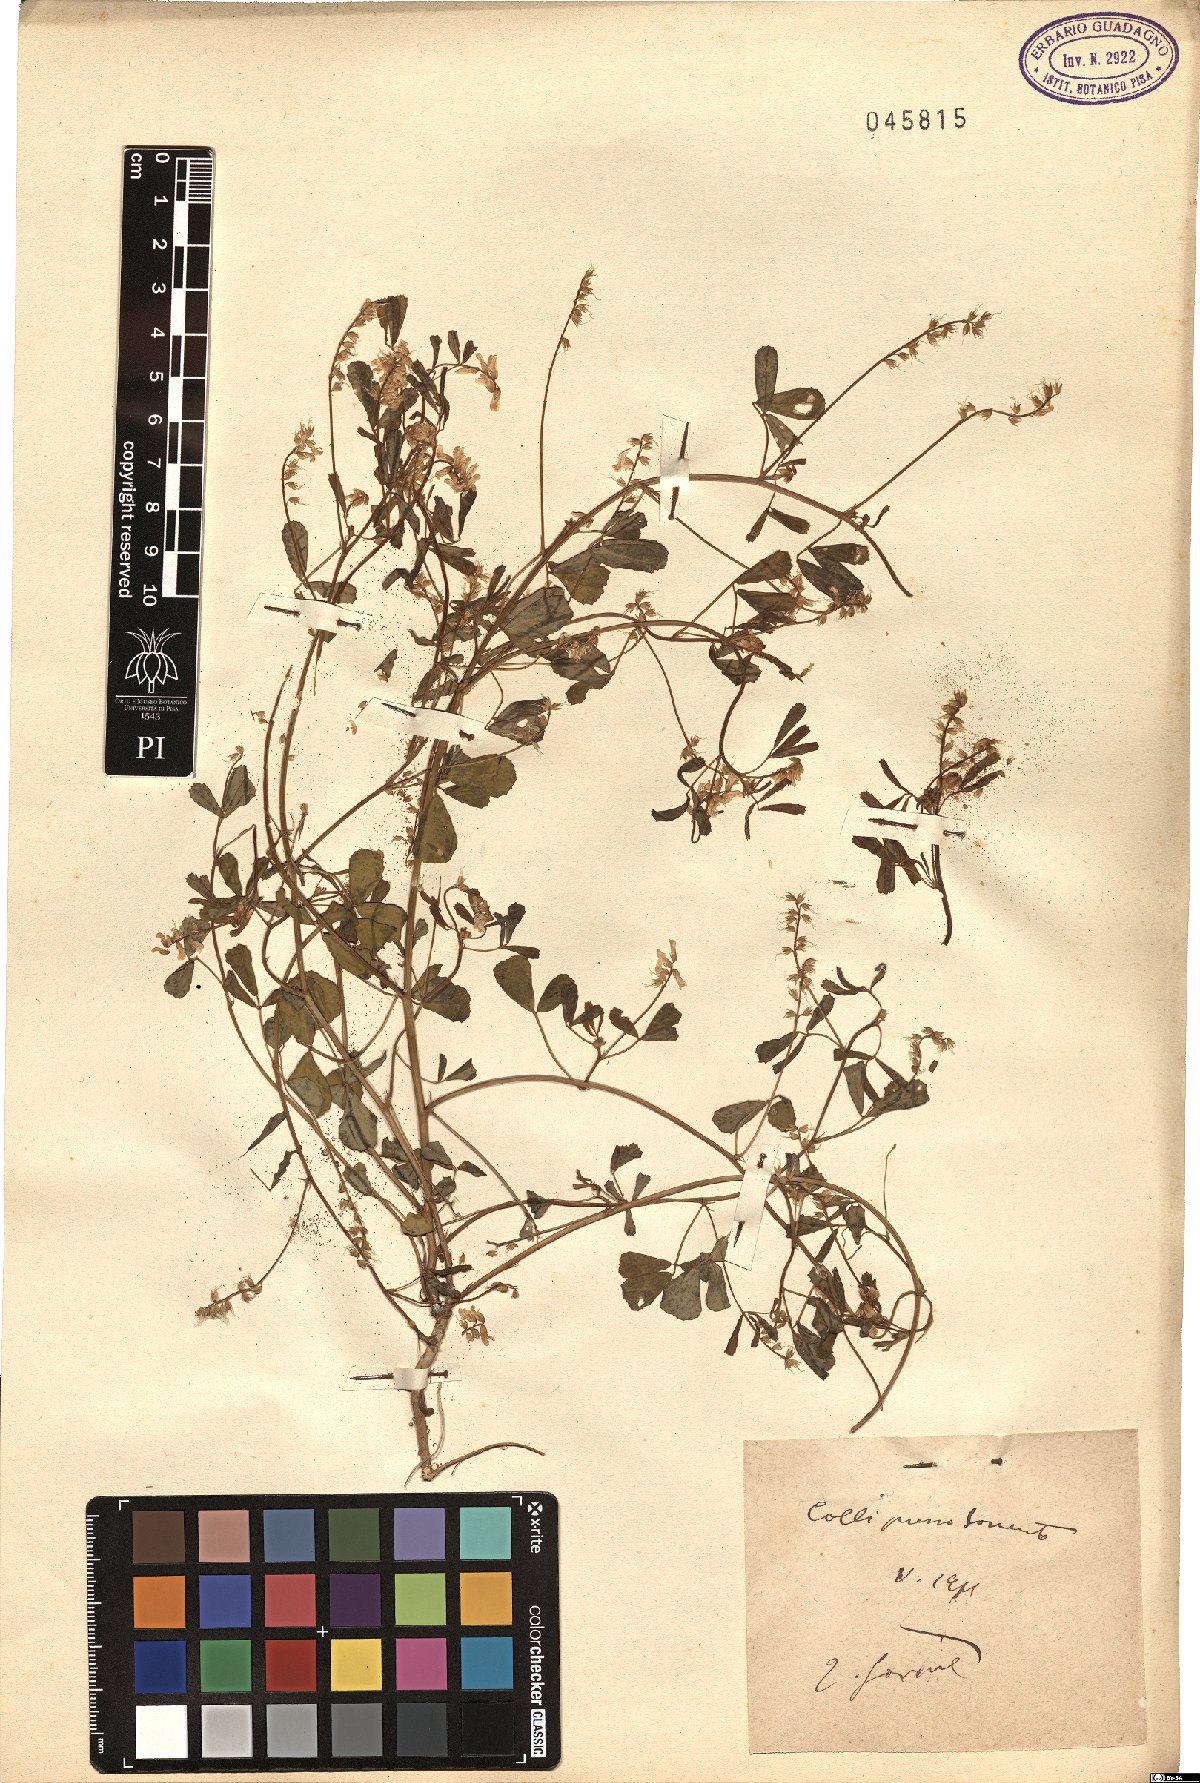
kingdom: Plantae
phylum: Tracheophyta
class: Magnoliopsida
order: Fabales
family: Fabaceae
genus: Melilotus
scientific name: Melilotus
